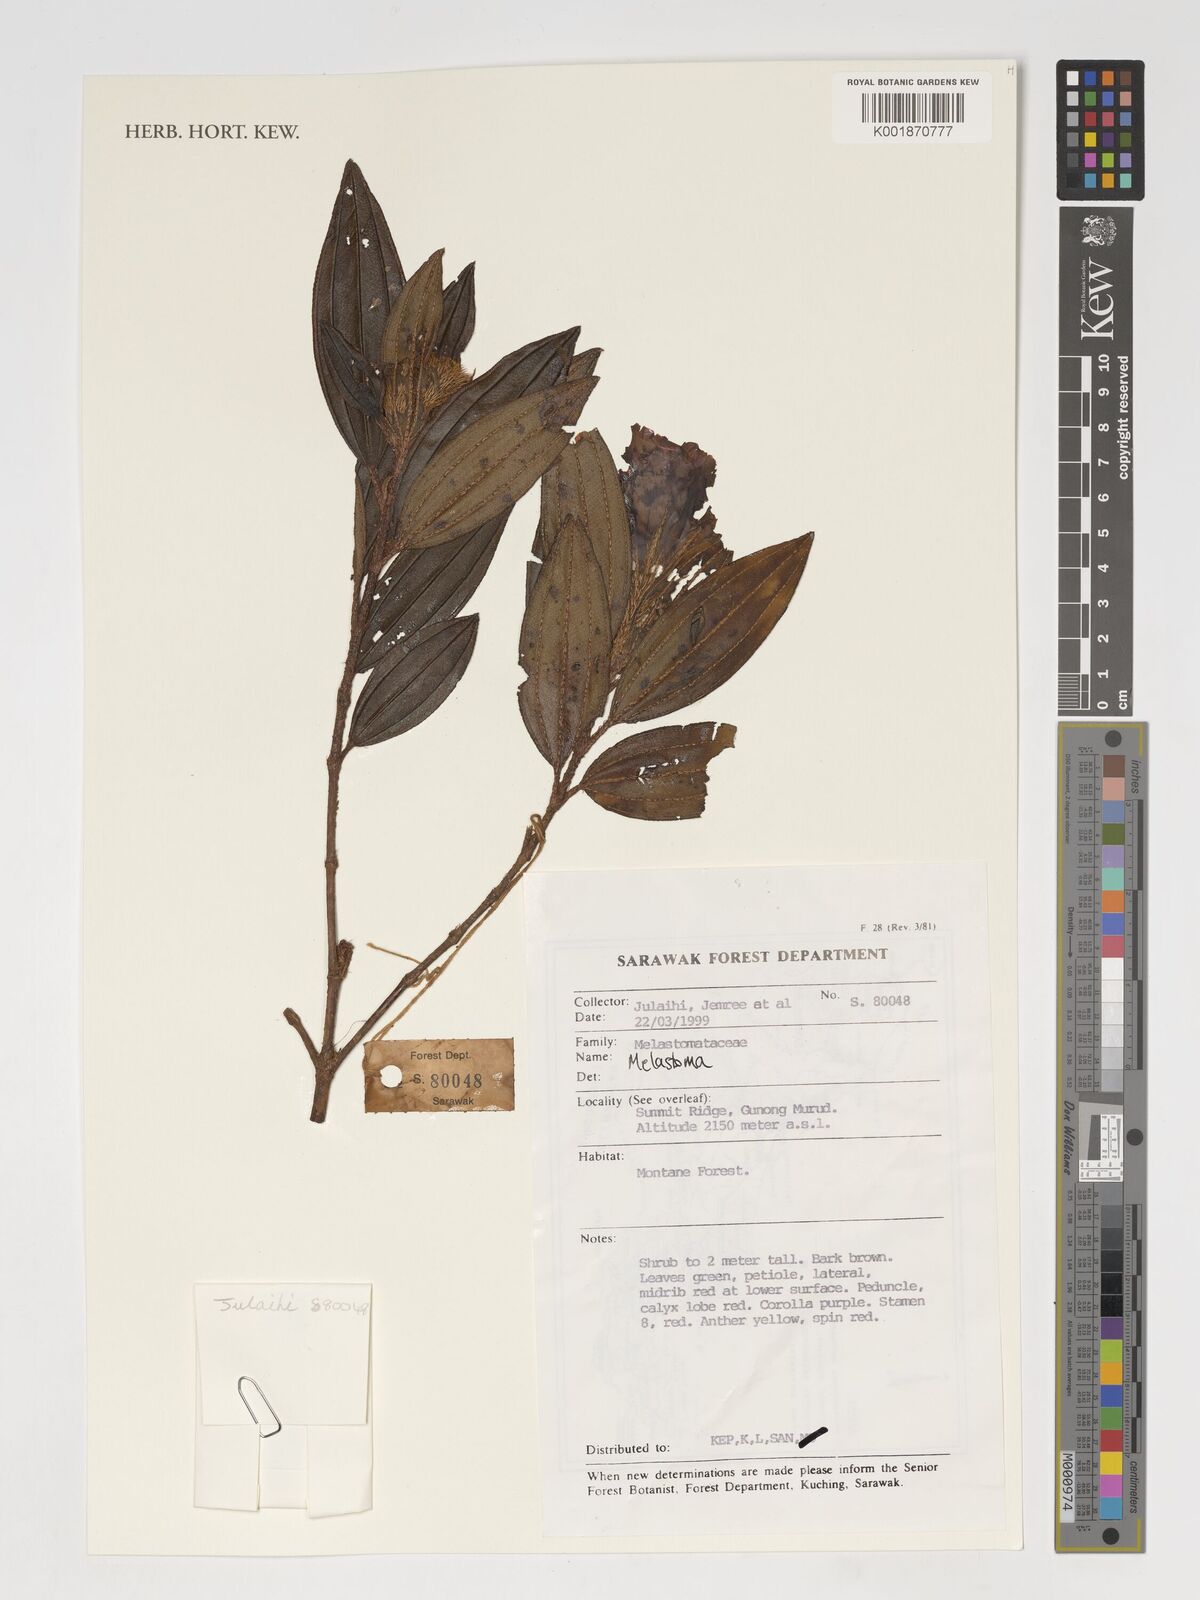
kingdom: Plantae
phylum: Tracheophyta
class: Magnoliopsida
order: Myrtales
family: Melastomataceae
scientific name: Melastomataceae
